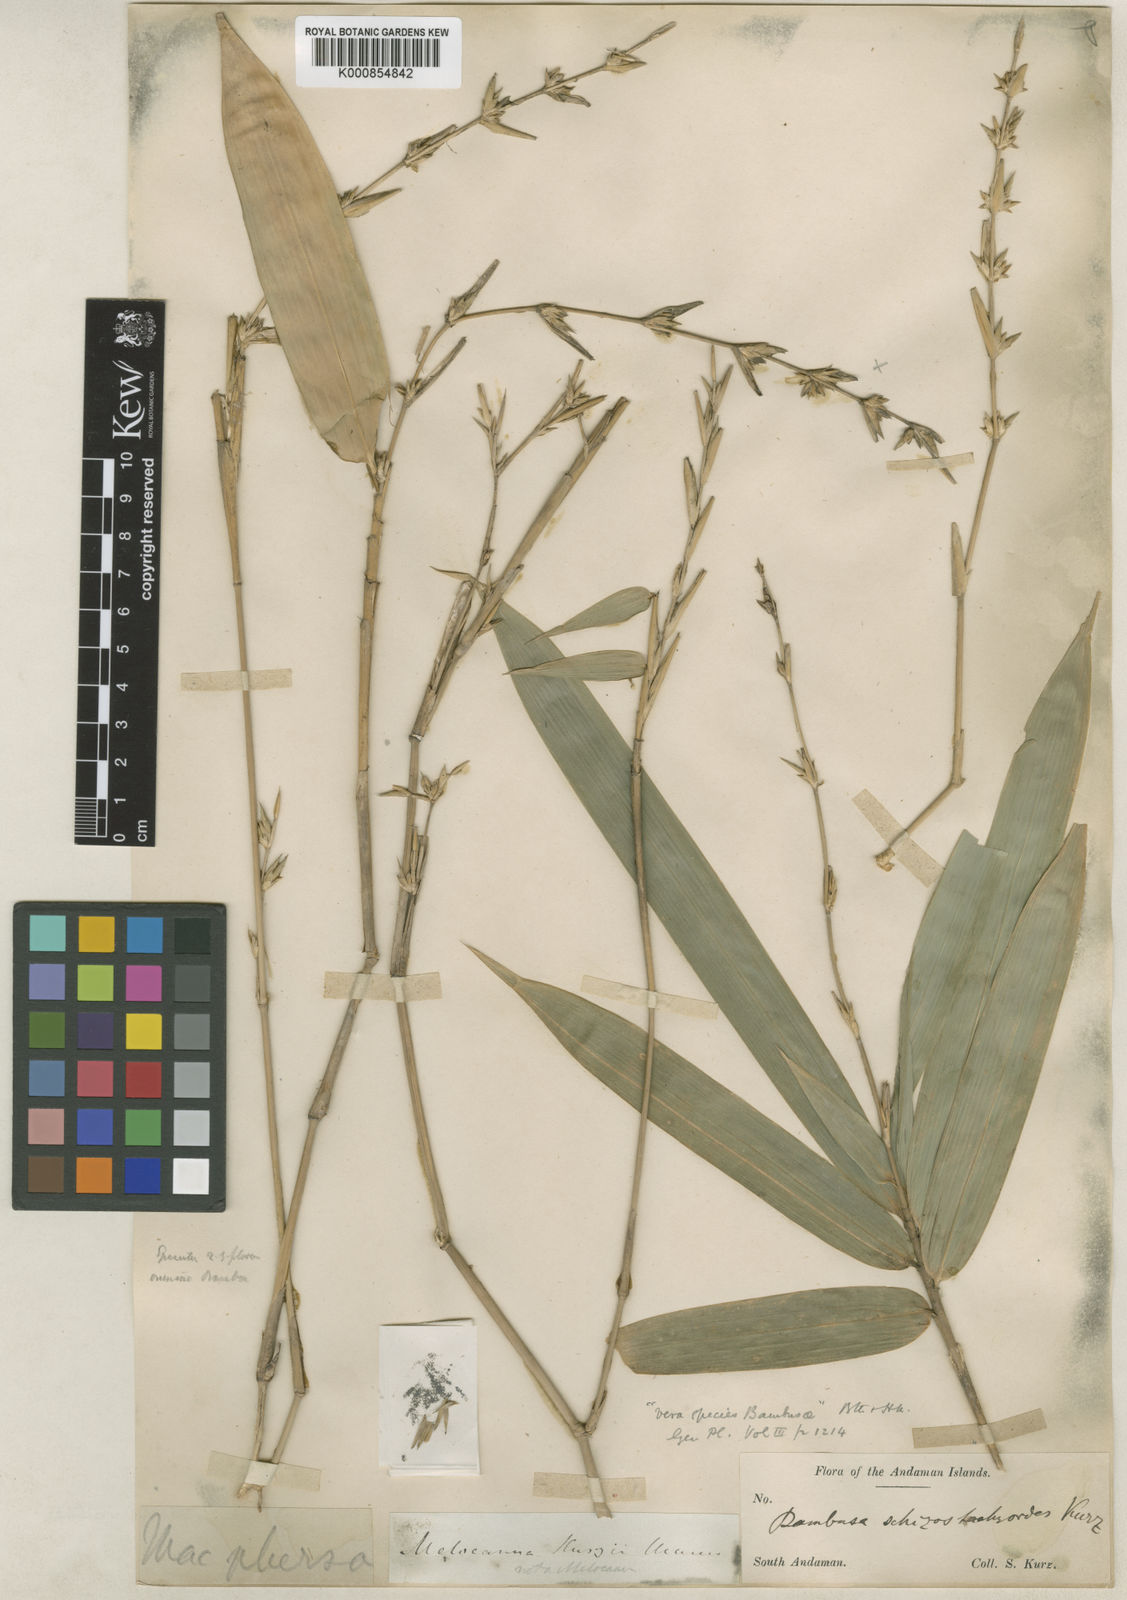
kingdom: Plantae
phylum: Tracheophyta
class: Liliopsida
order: Poales
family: Poaceae
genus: Pseudobambusa
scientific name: Pseudobambusa schizostachyoides
